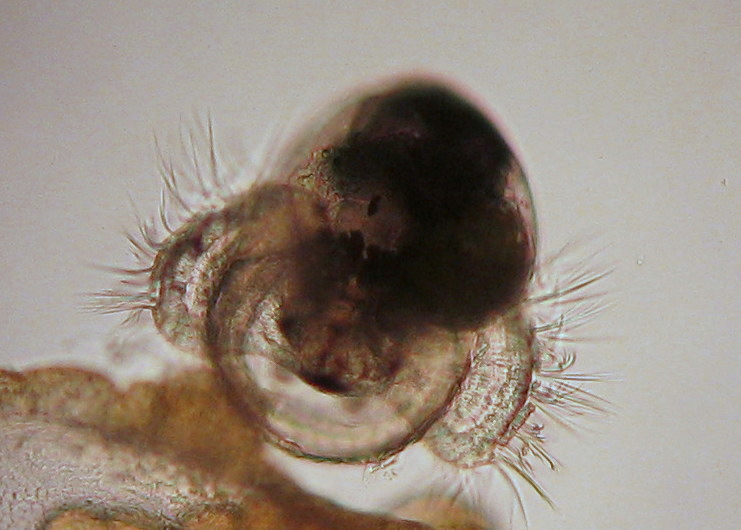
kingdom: Animalia
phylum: Mollusca
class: Gastropoda
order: Littorinimorpha
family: Littorinidae
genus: Littorina
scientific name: Littorina
